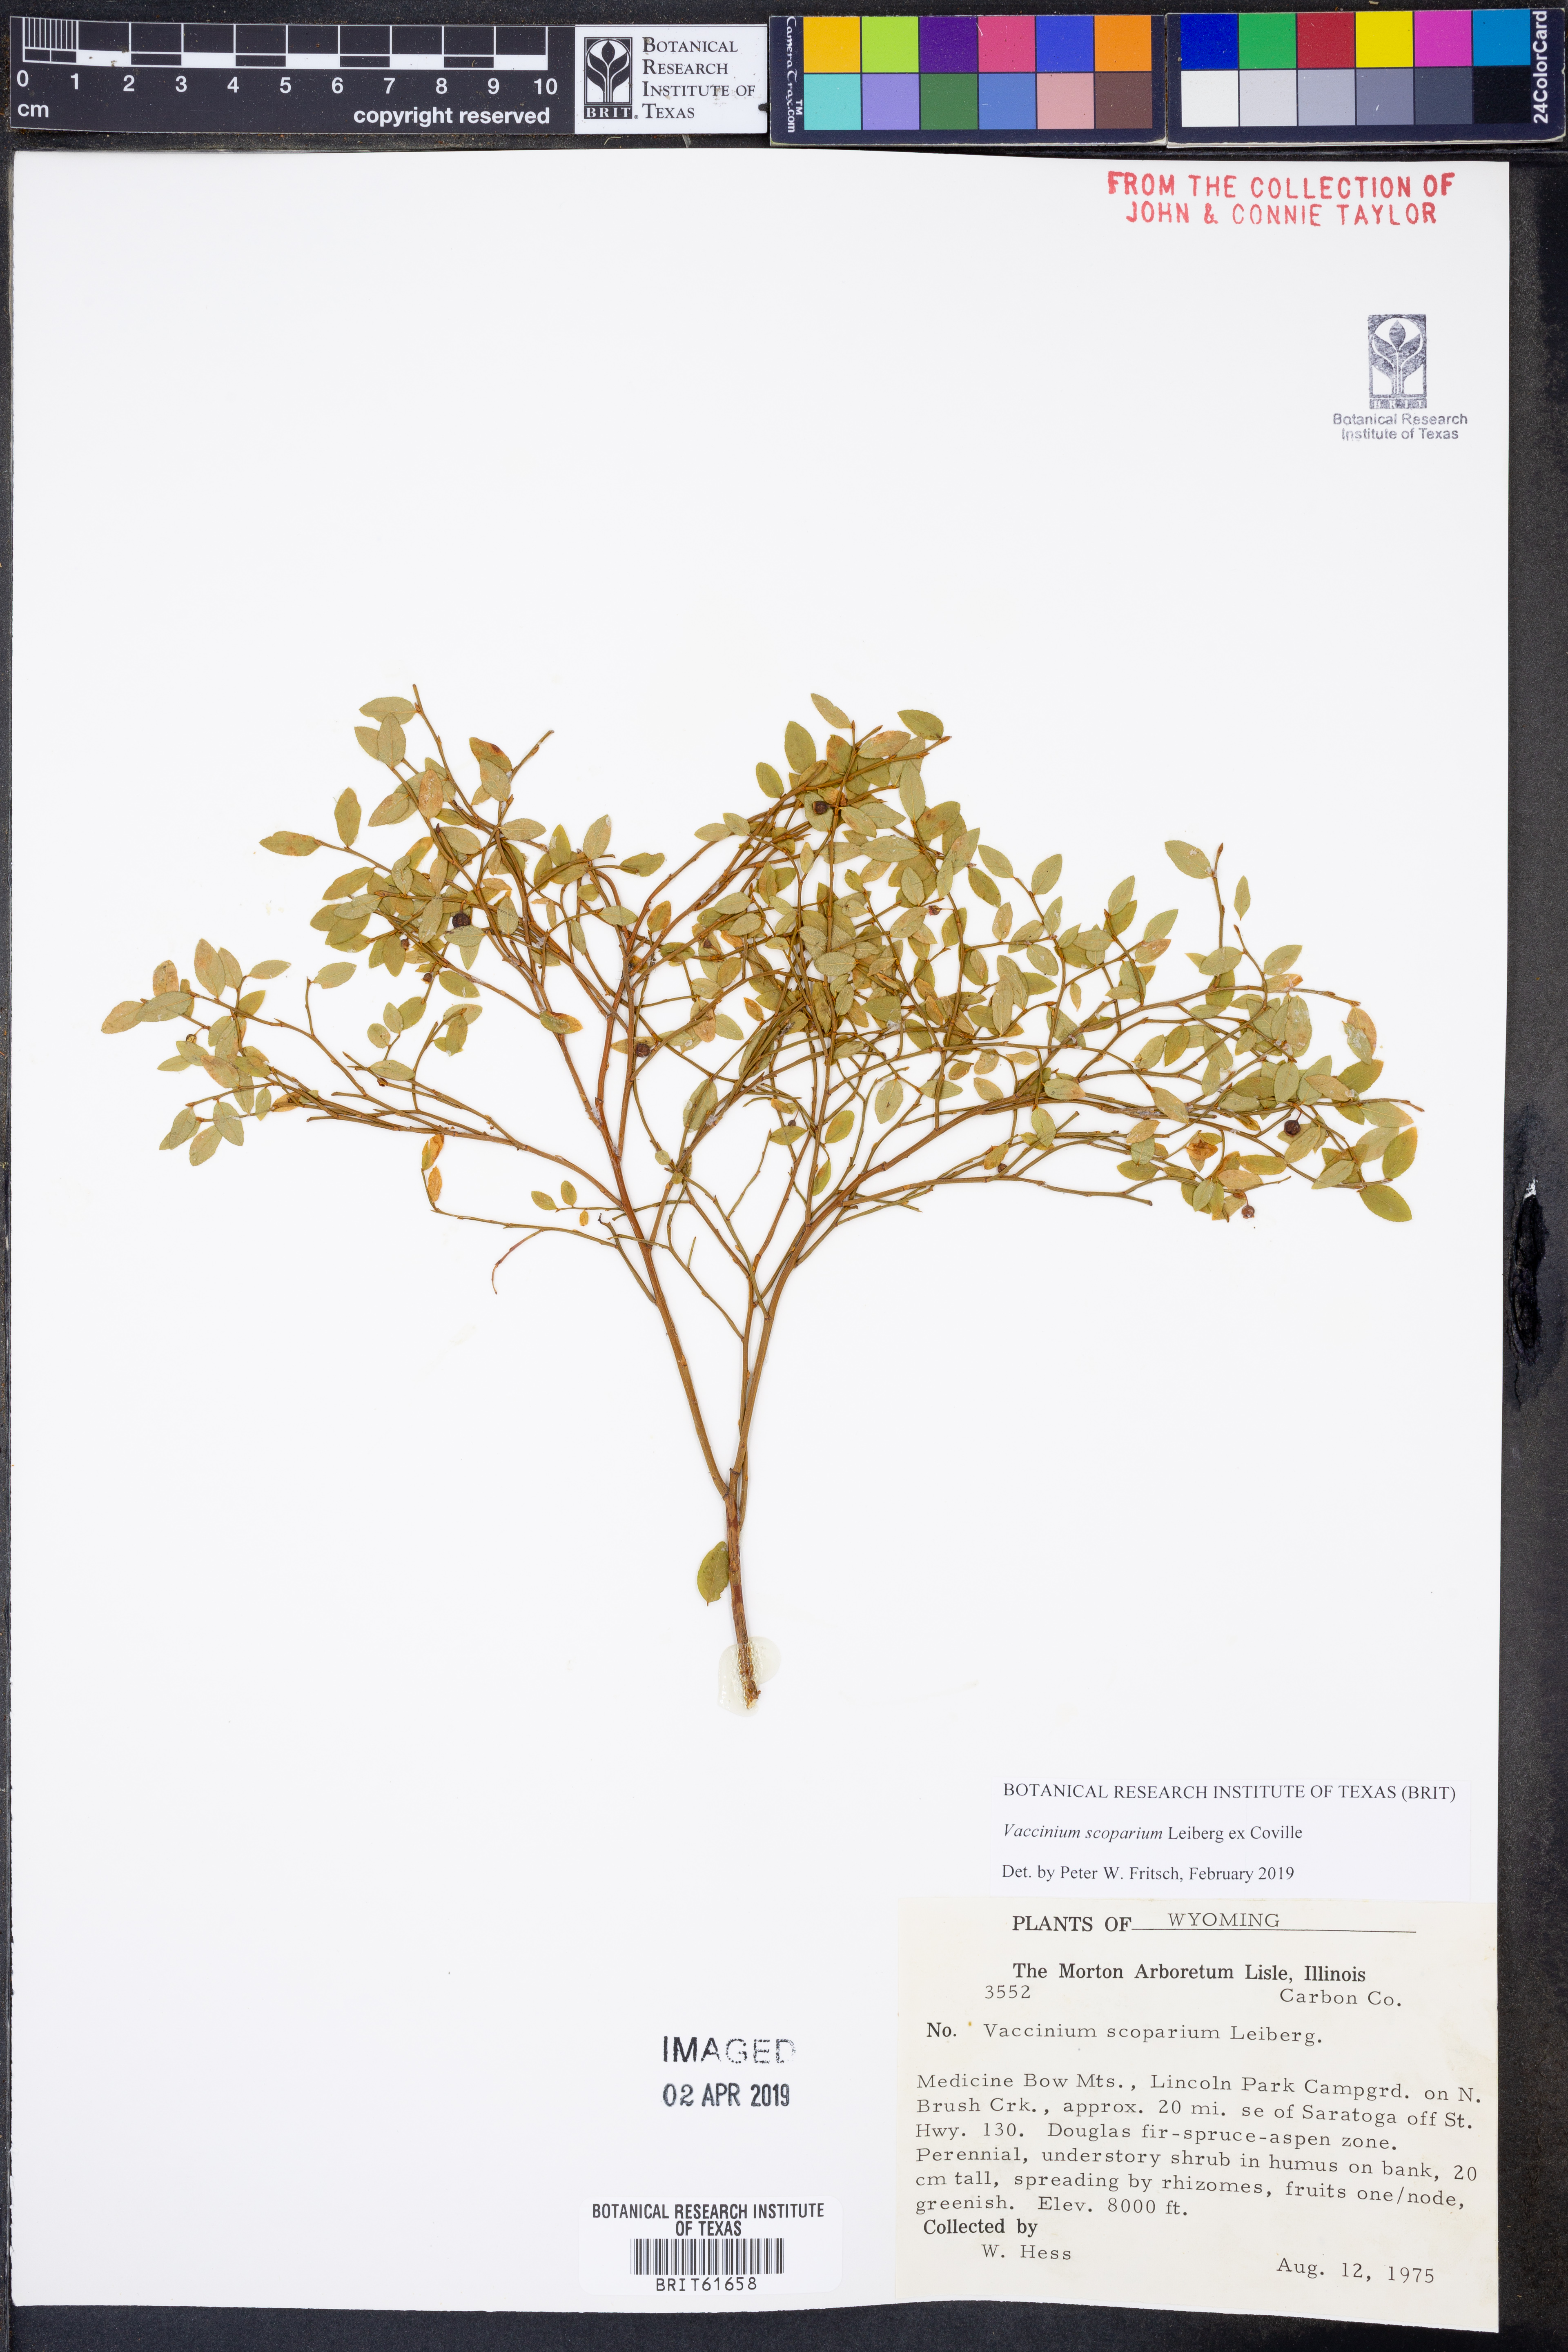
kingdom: Plantae
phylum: Tracheophyta
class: Magnoliopsida
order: Ericales
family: Ericaceae
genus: Vaccinium
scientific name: Vaccinium scoparium
